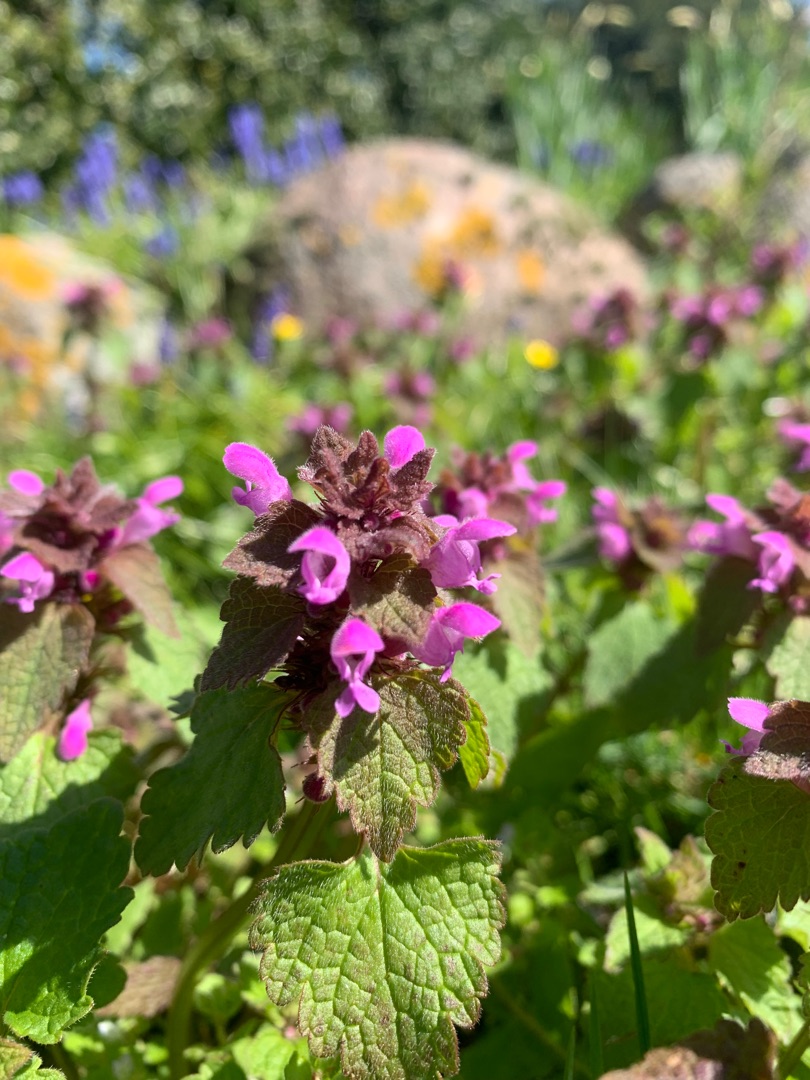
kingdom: Plantae
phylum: Tracheophyta
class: Magnoliopsida
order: Lamiales
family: Lamiaceae
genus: Lamium
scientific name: Lamium purpureum
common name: Rød tvetand
